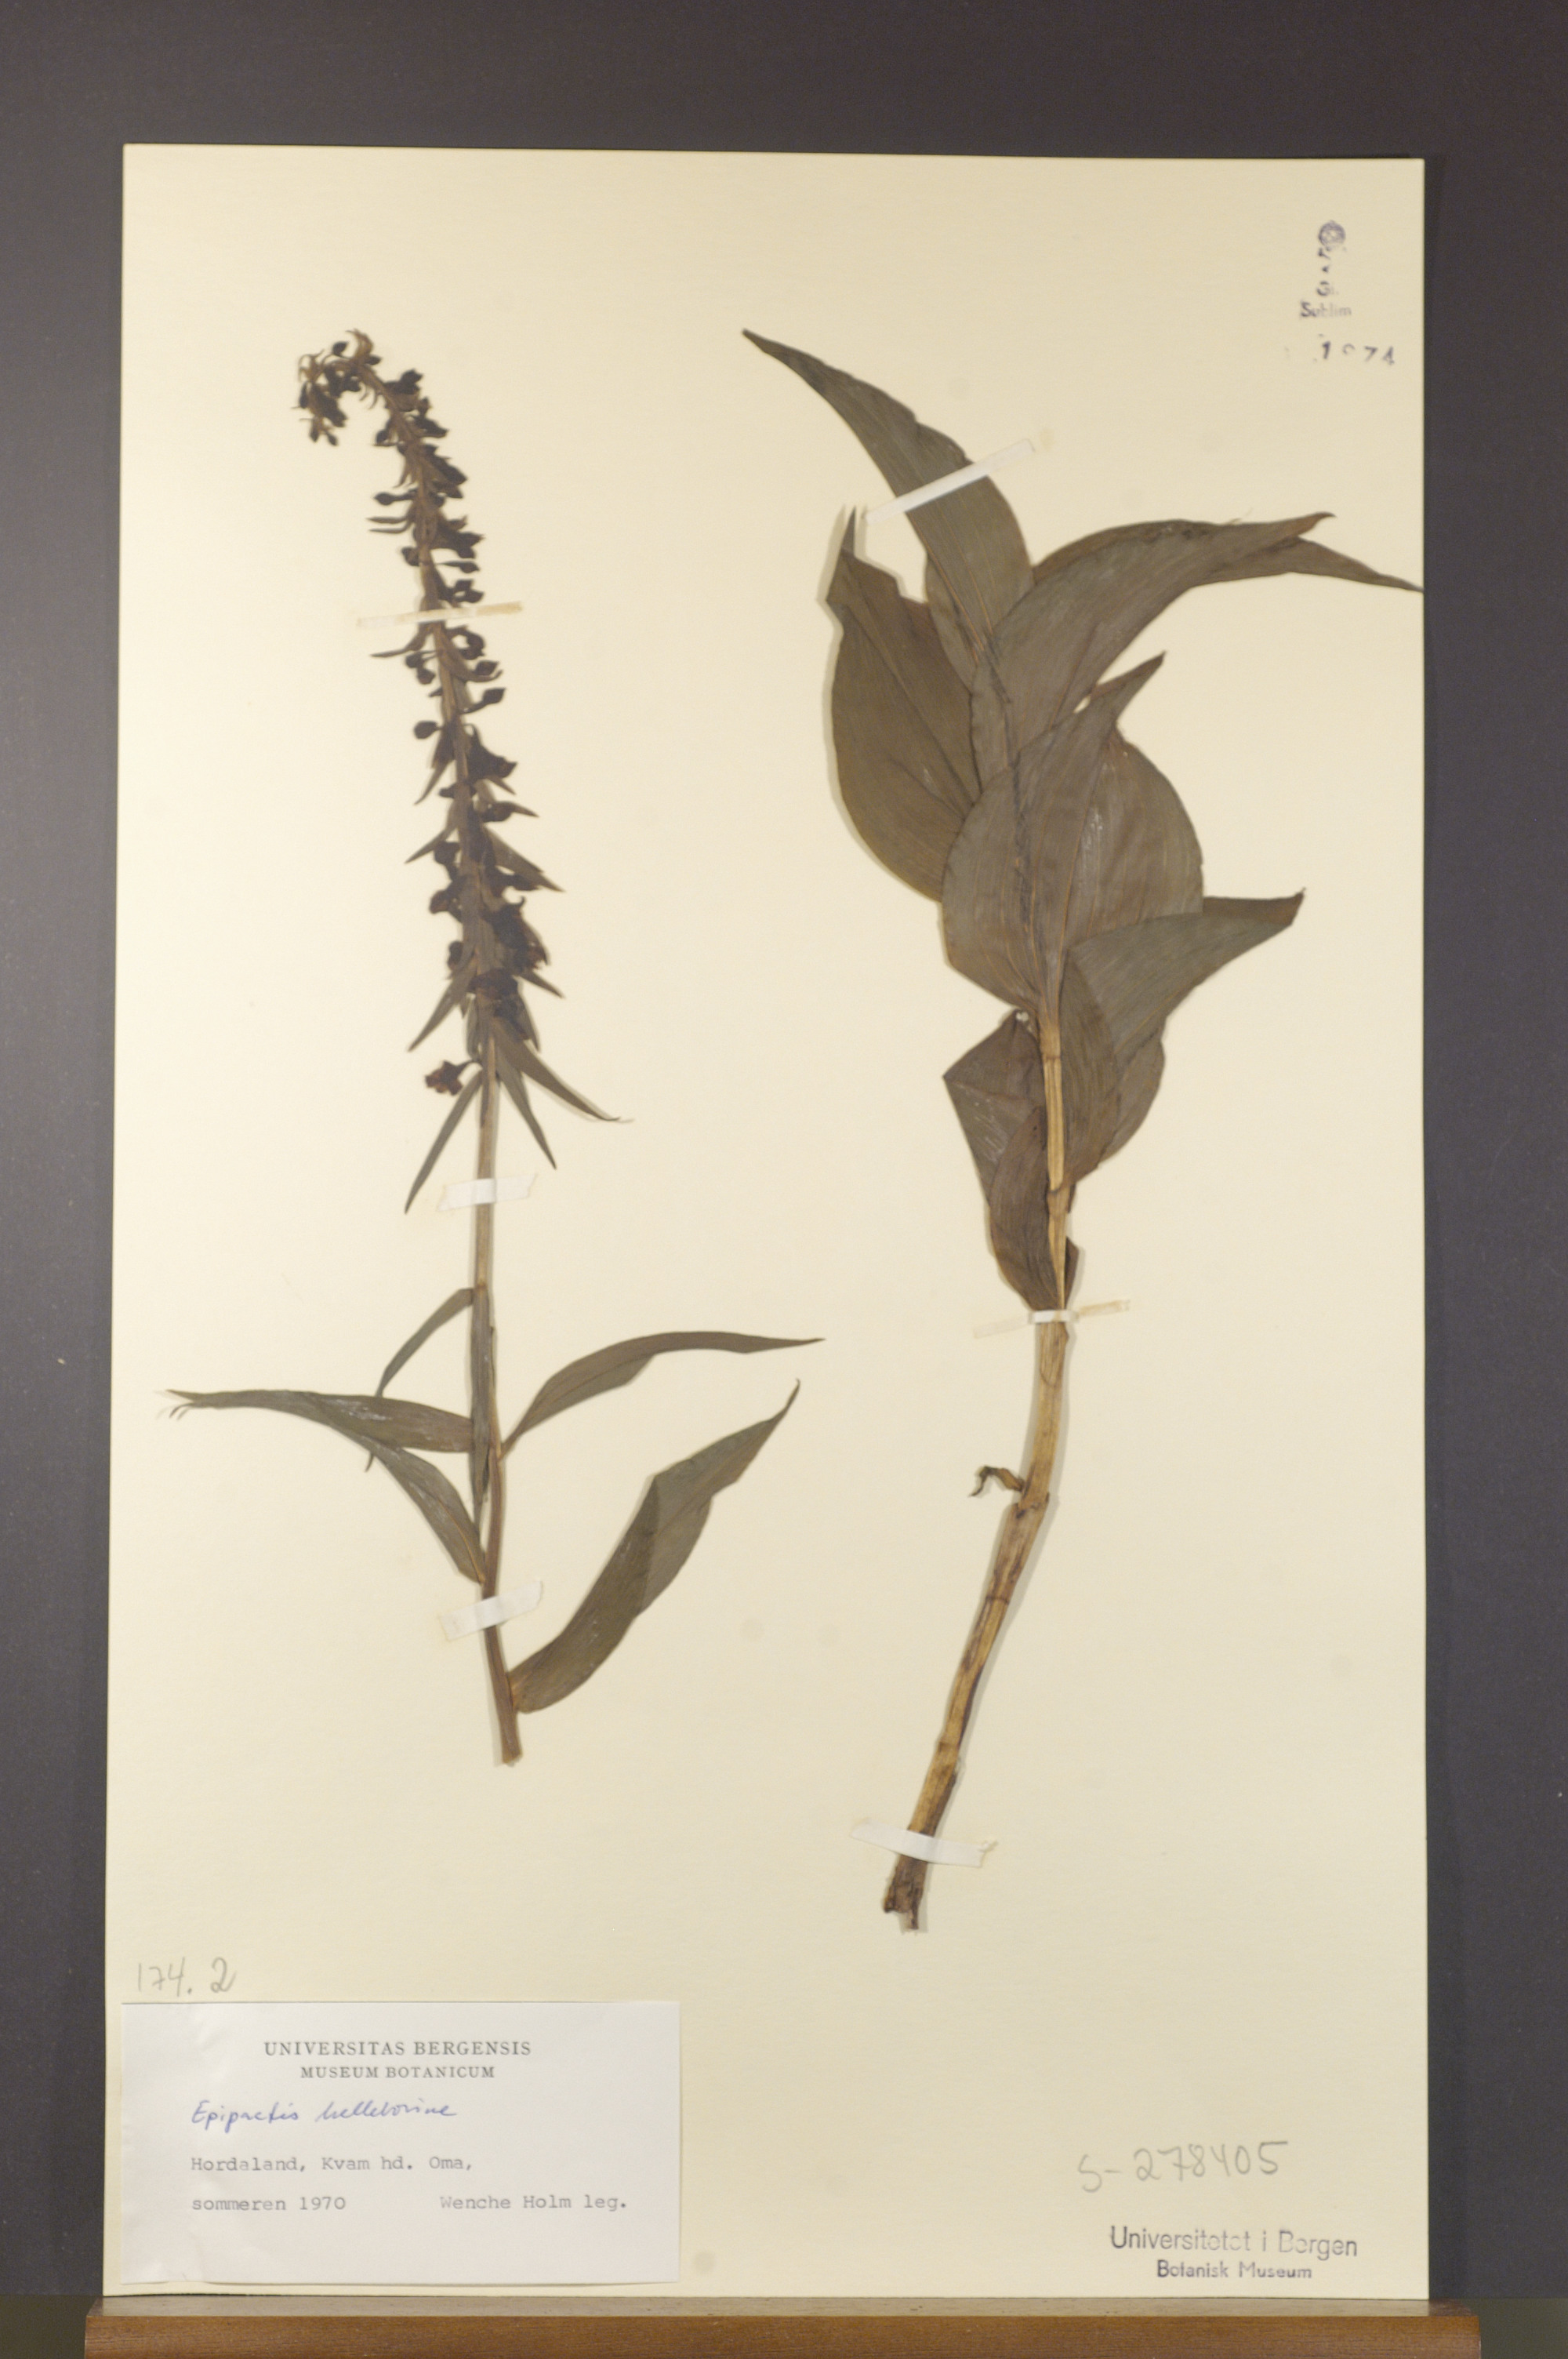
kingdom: Plantae
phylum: Tracheophyta
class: Liliopsida
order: Asparagales
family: Orchidaceae
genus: Epipactis
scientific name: Epipactis helleborine
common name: Broad-leaved helleborine
